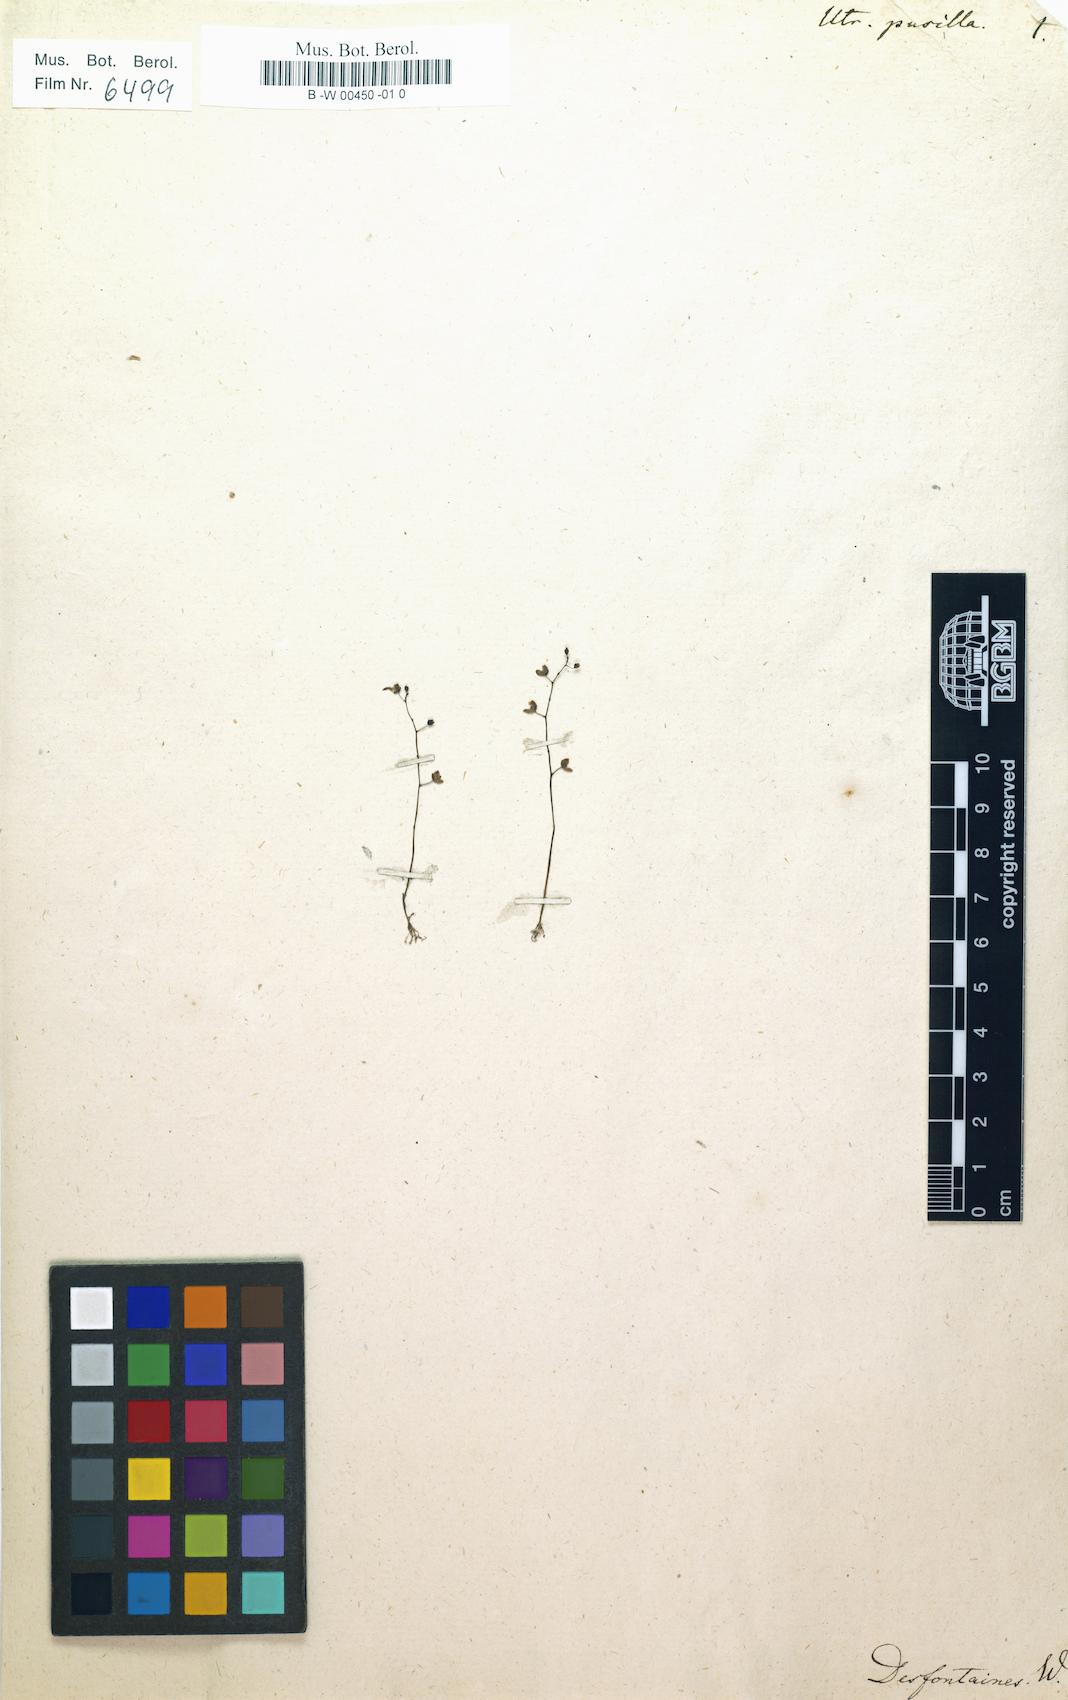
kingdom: Plantae
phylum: Tracheophyta
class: Magnoliopsida
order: Lamiales
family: Lentibulariaceae
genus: Utricularia
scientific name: Utricularia pusilla
